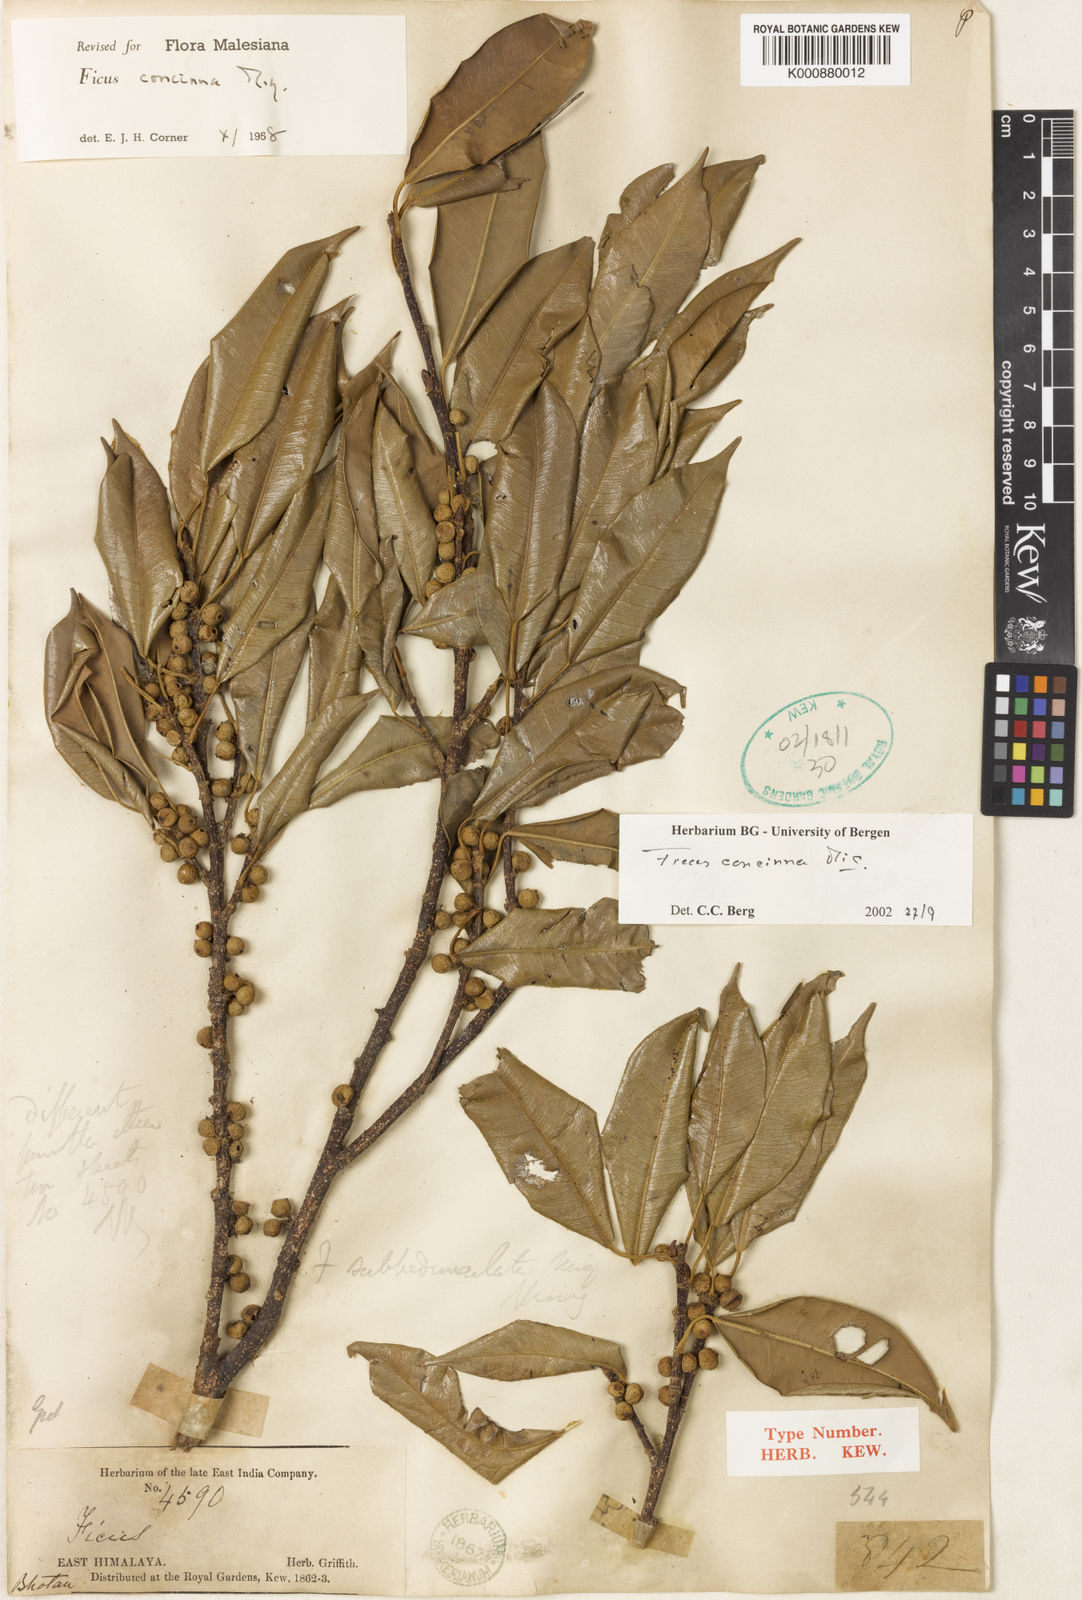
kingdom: Plantae
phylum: Tracheophyta
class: Magnoliopsida
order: Rosales
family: Moraceae
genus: Ficus
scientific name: Ficus concinna
